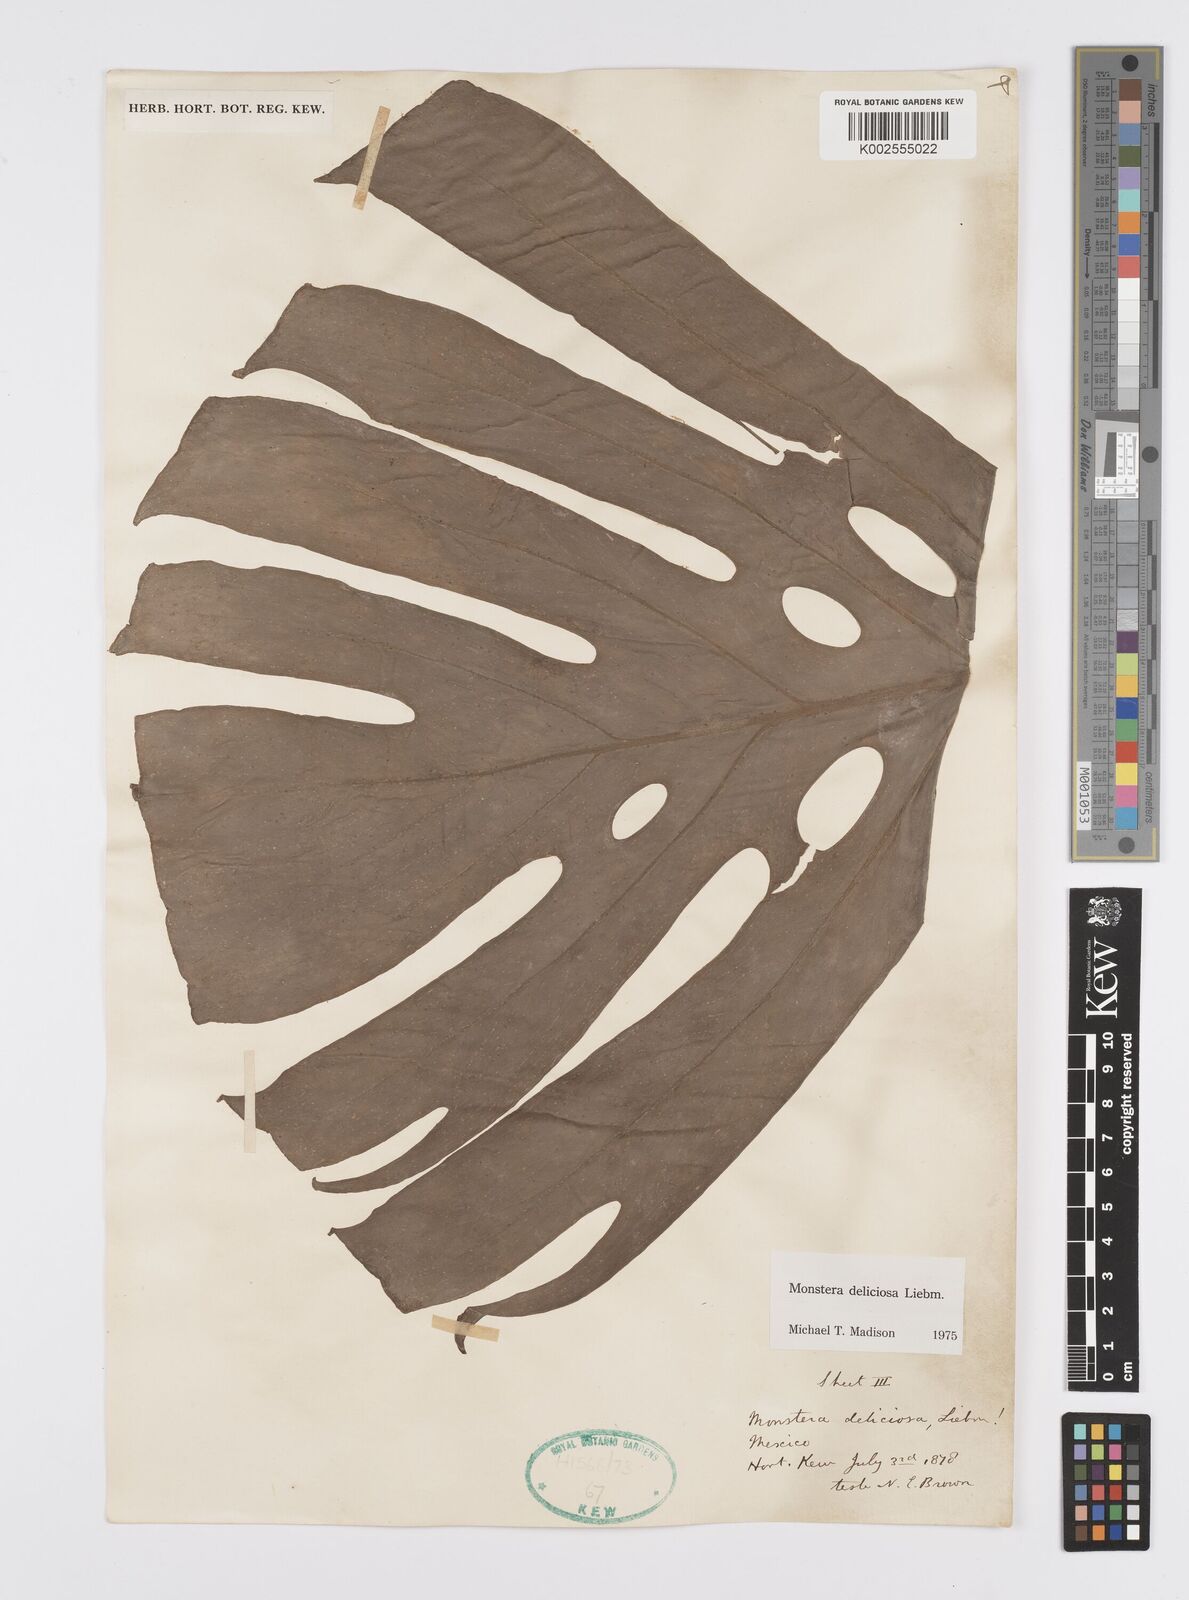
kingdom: Plantae
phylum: Tracheophyta
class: Liliopsida
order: Alismatales
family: Araceae
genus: Monstera
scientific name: Monstera deliciosa
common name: Cut-leaf-philodendron
